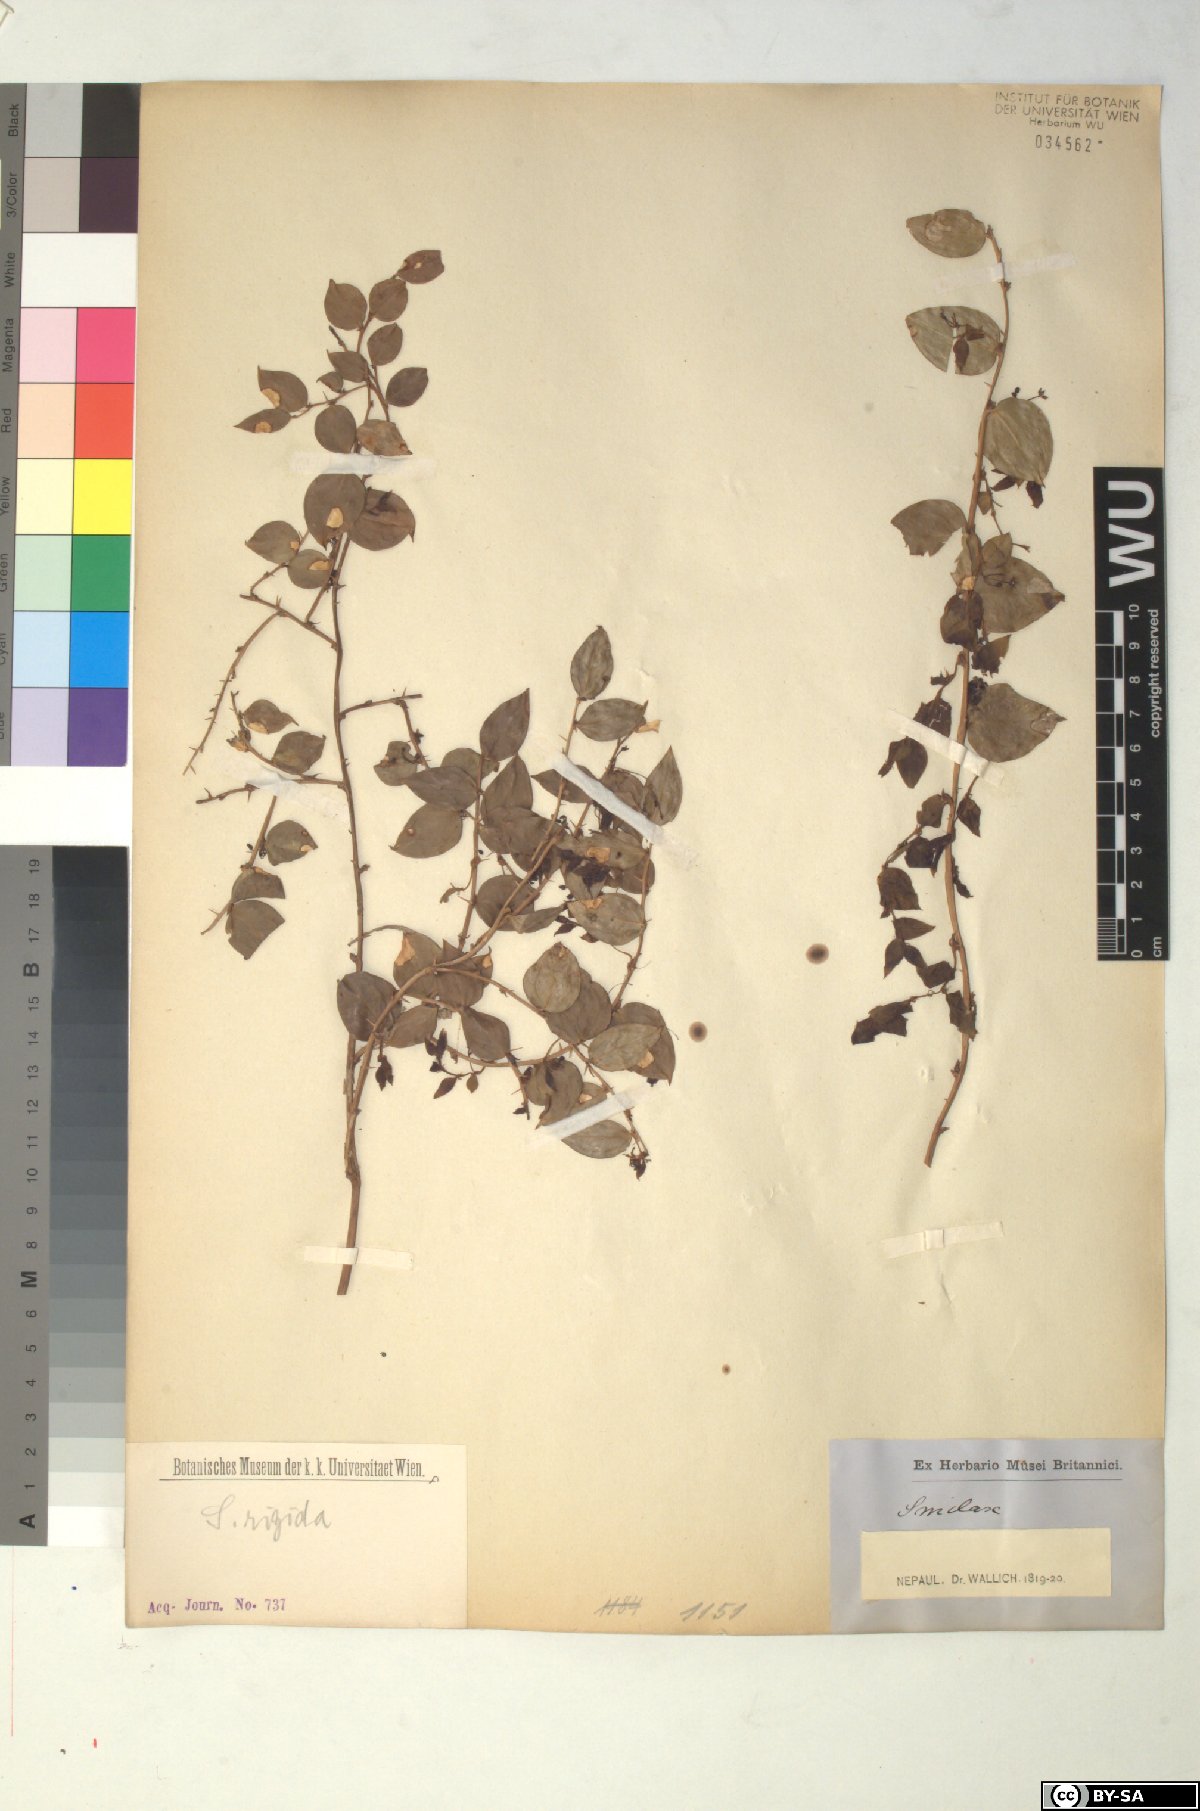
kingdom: Plantae
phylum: Tracheophyta
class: Liliopsida
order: Liliales
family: Smilacaceae
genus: Smilax
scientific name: Smilax munita
